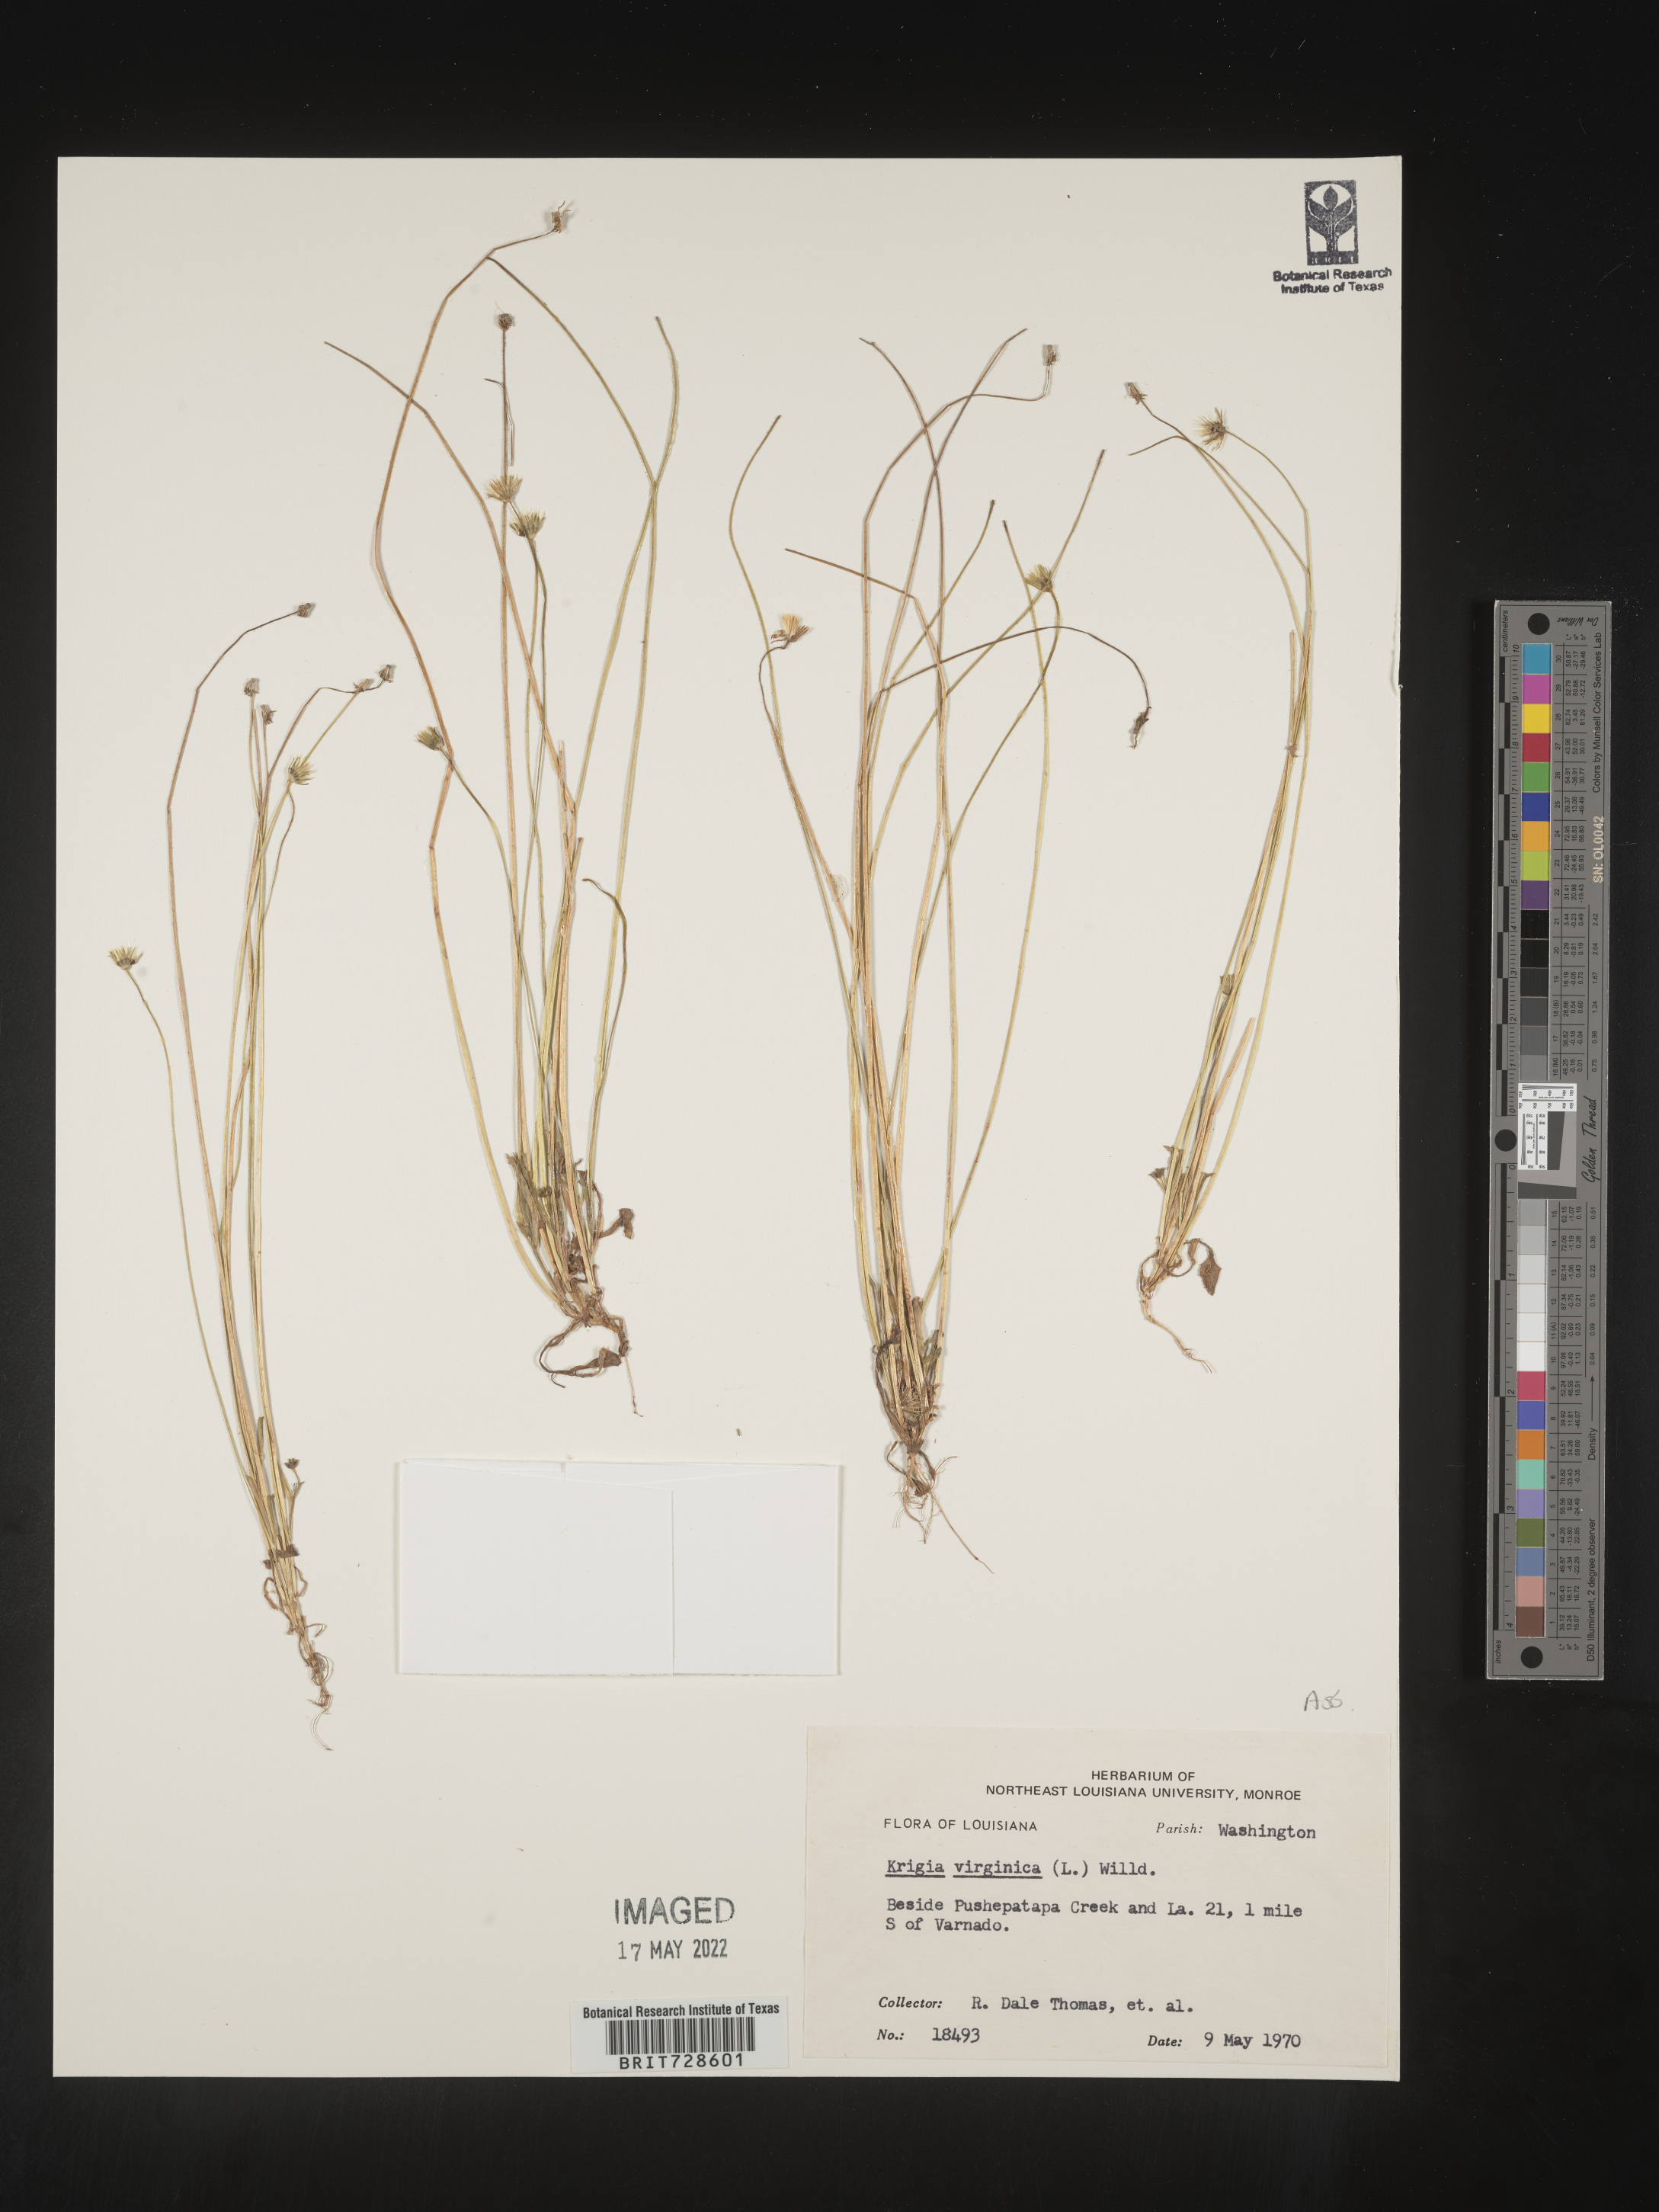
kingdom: Plantae
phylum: Tracheophyta
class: Magnoliopsida
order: Asterales
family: Asteraceae
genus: Krigia
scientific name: Krigia virginica
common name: Virginia dwarf-dandelion
